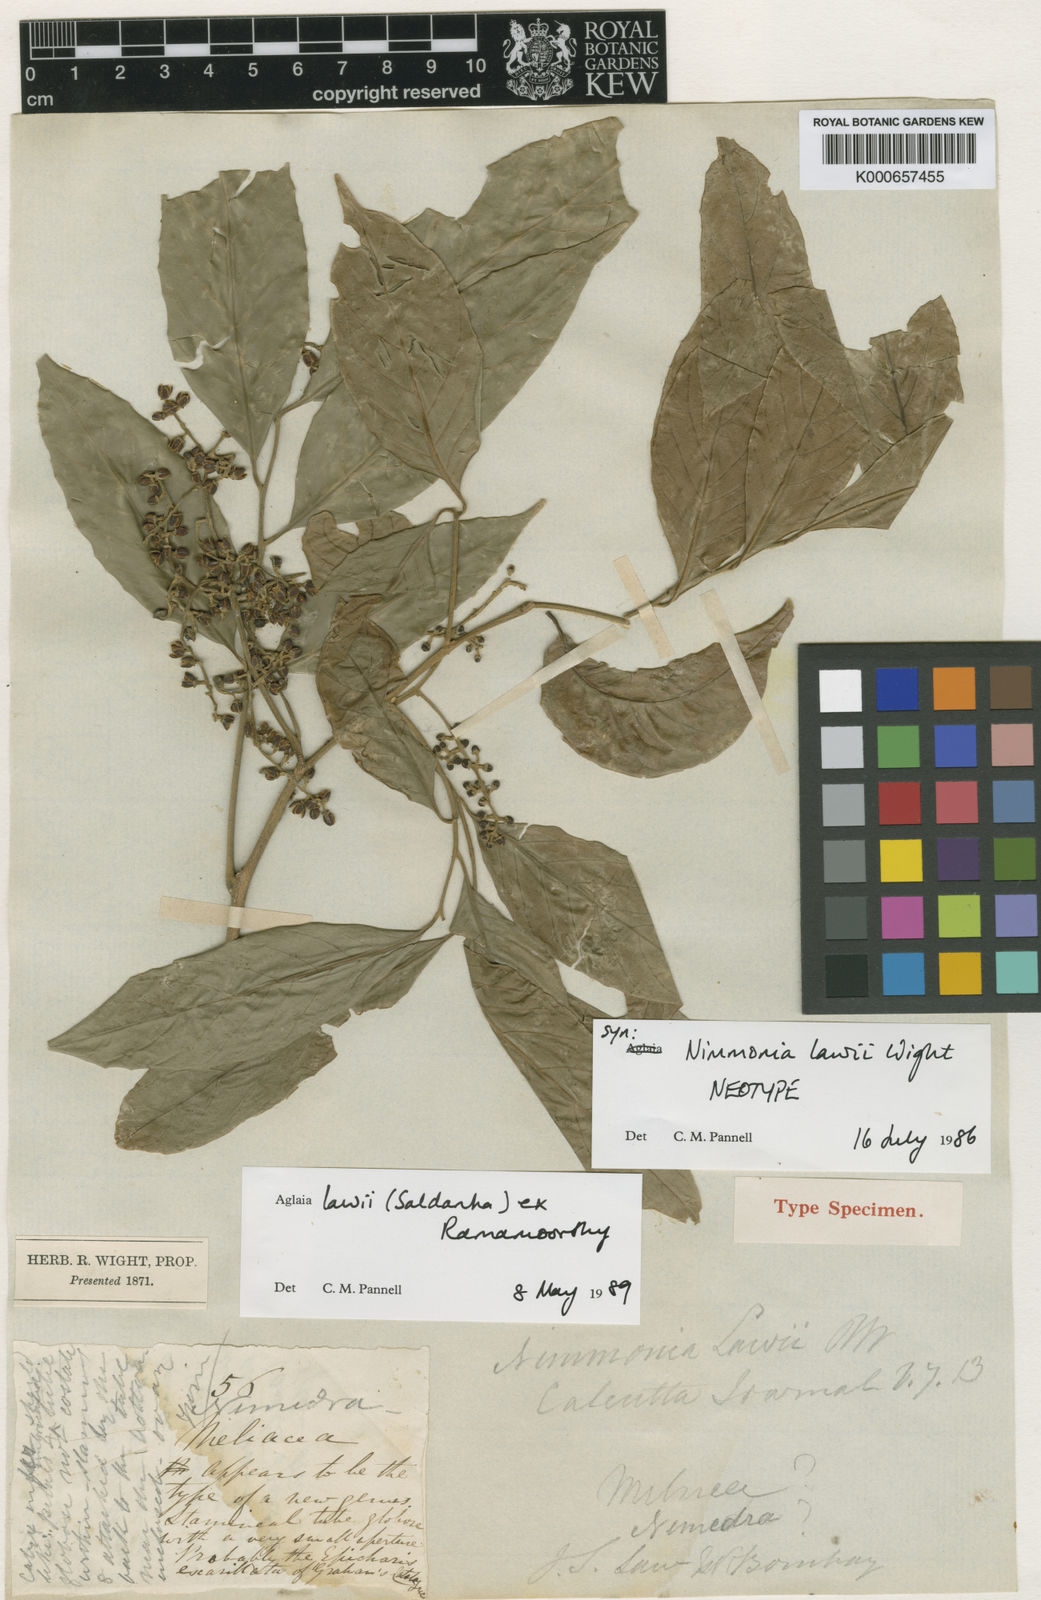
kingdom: Plantae
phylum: Tracheophyta
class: Magnoliopsida
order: Sapindales
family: Meliaceae
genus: Aglaia
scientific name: Aglaia
